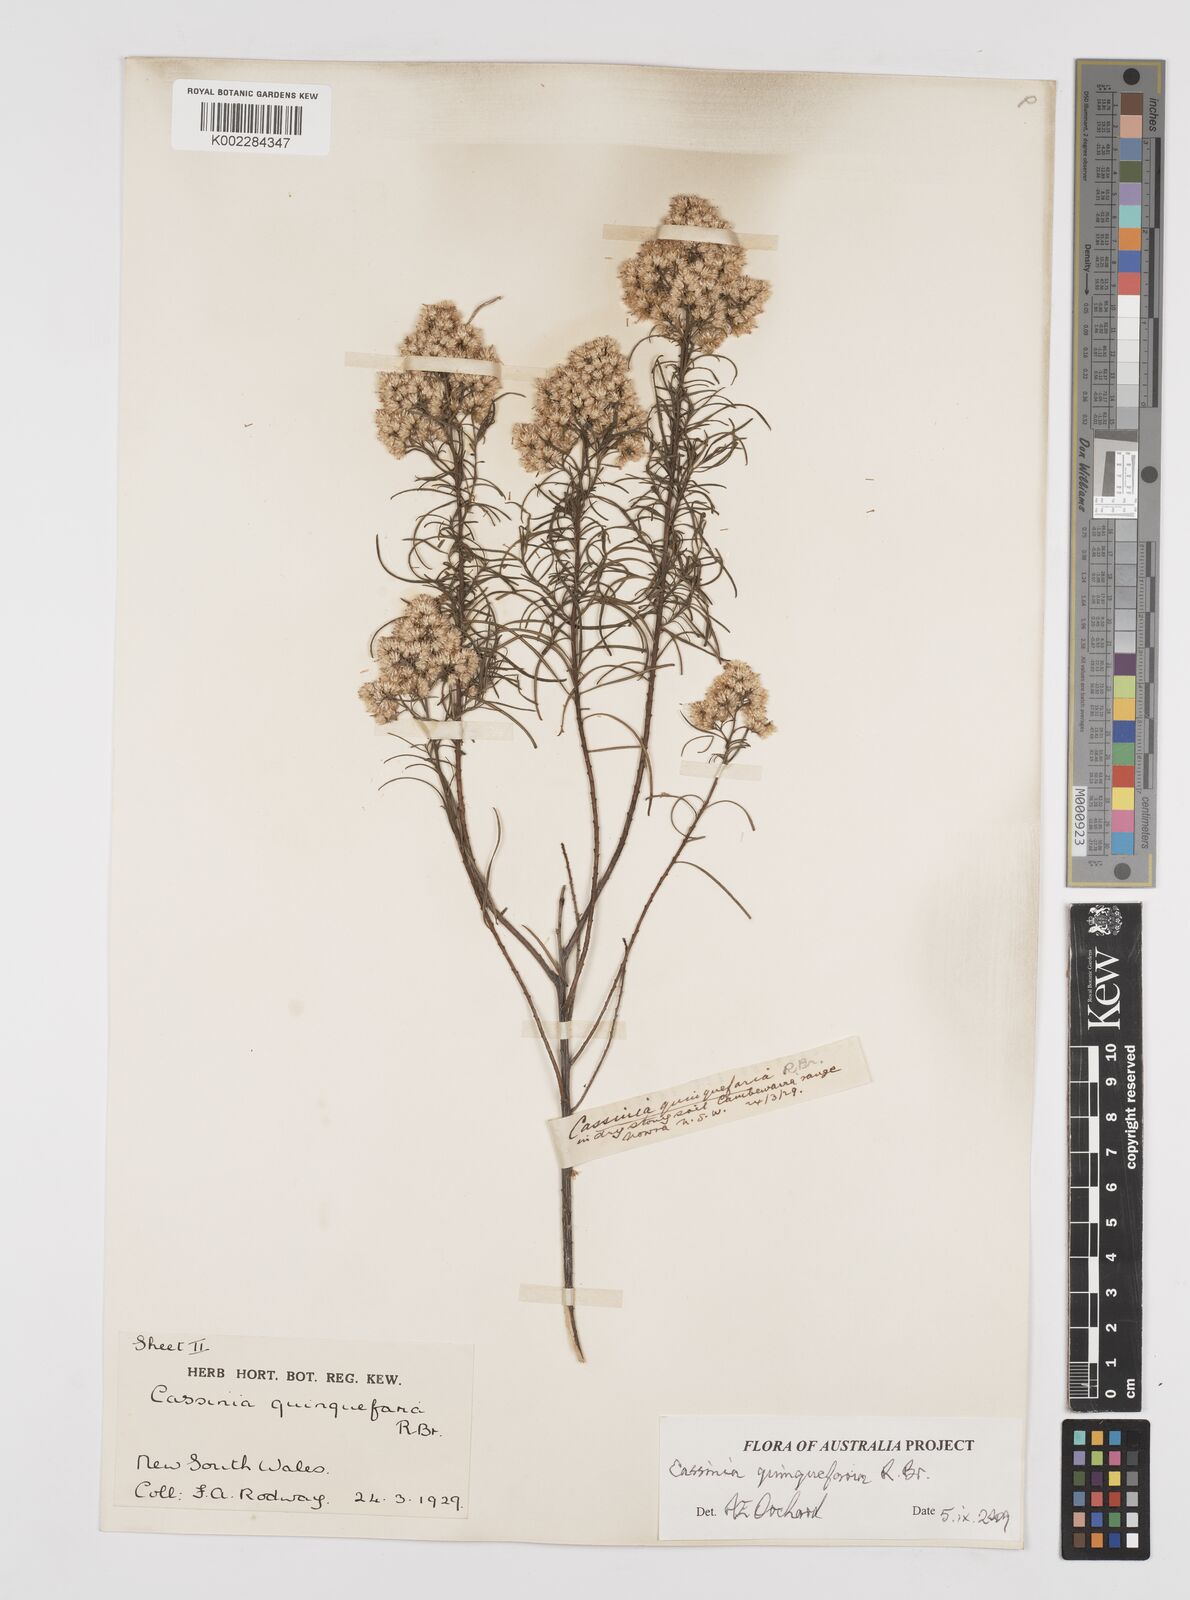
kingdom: Plantae
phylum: Tracheophyta
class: Magnoliopsida
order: Asterales
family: Asteraceae
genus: Cassinia
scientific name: Cassinia quinquefaria
